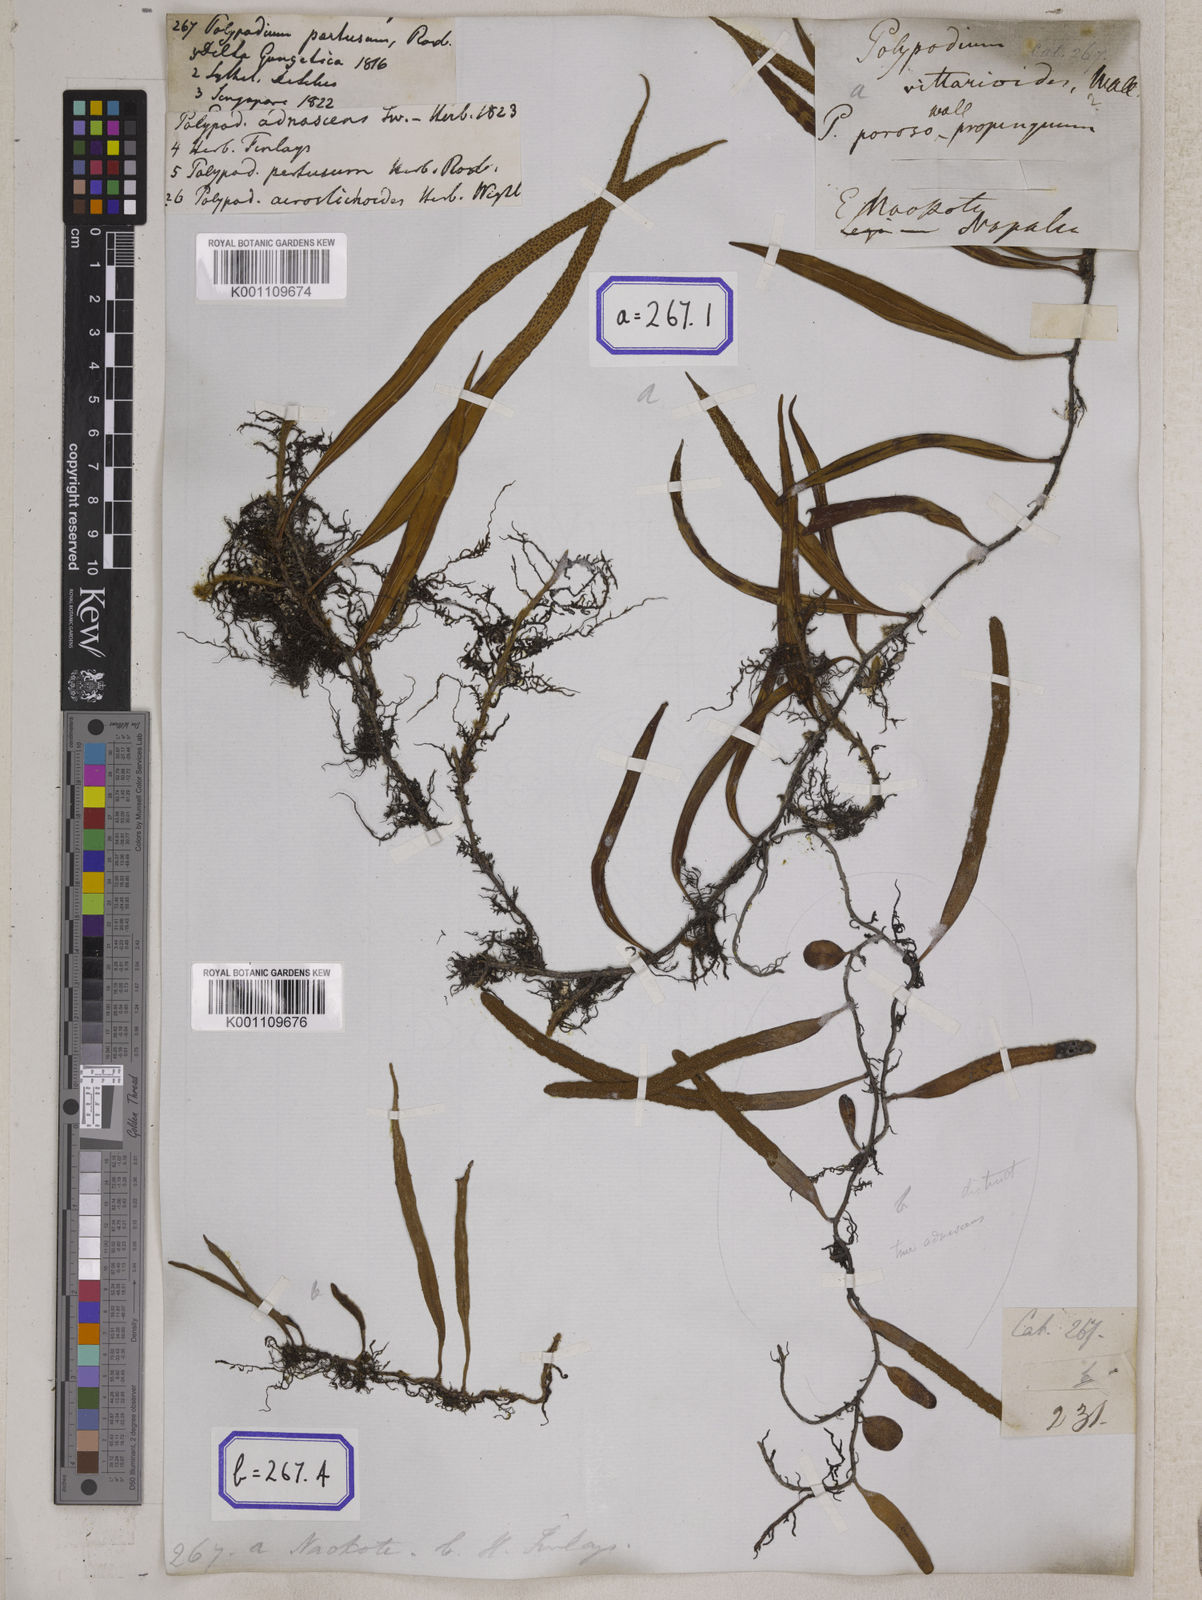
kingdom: Plantae
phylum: Tracheophyta
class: Polypodiopsida
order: Polypodiales
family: Polypodiaceae
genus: Polypodium
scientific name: Polypodium
